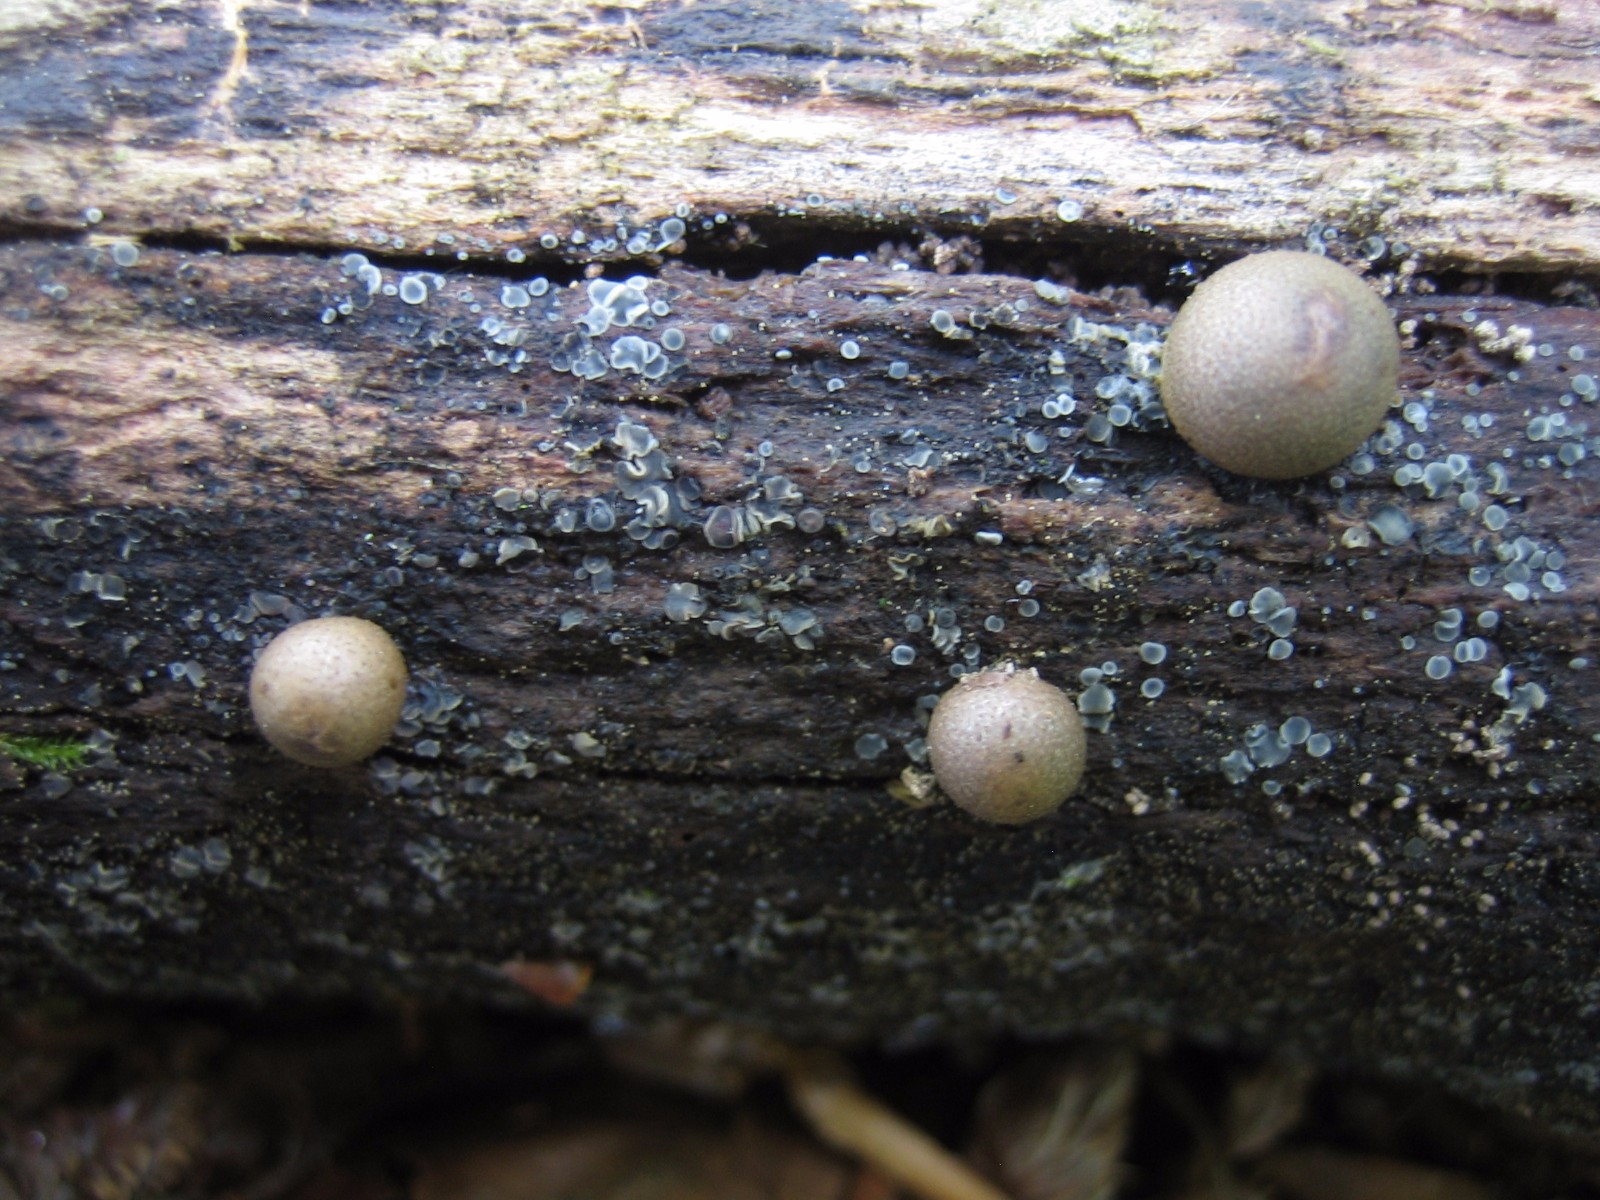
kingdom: Protozoa
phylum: Mycetozoa
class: Myxomycetes
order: Cribrariales
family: Tubiferaceae
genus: Lycogala
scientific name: Lycogala epidendrum
